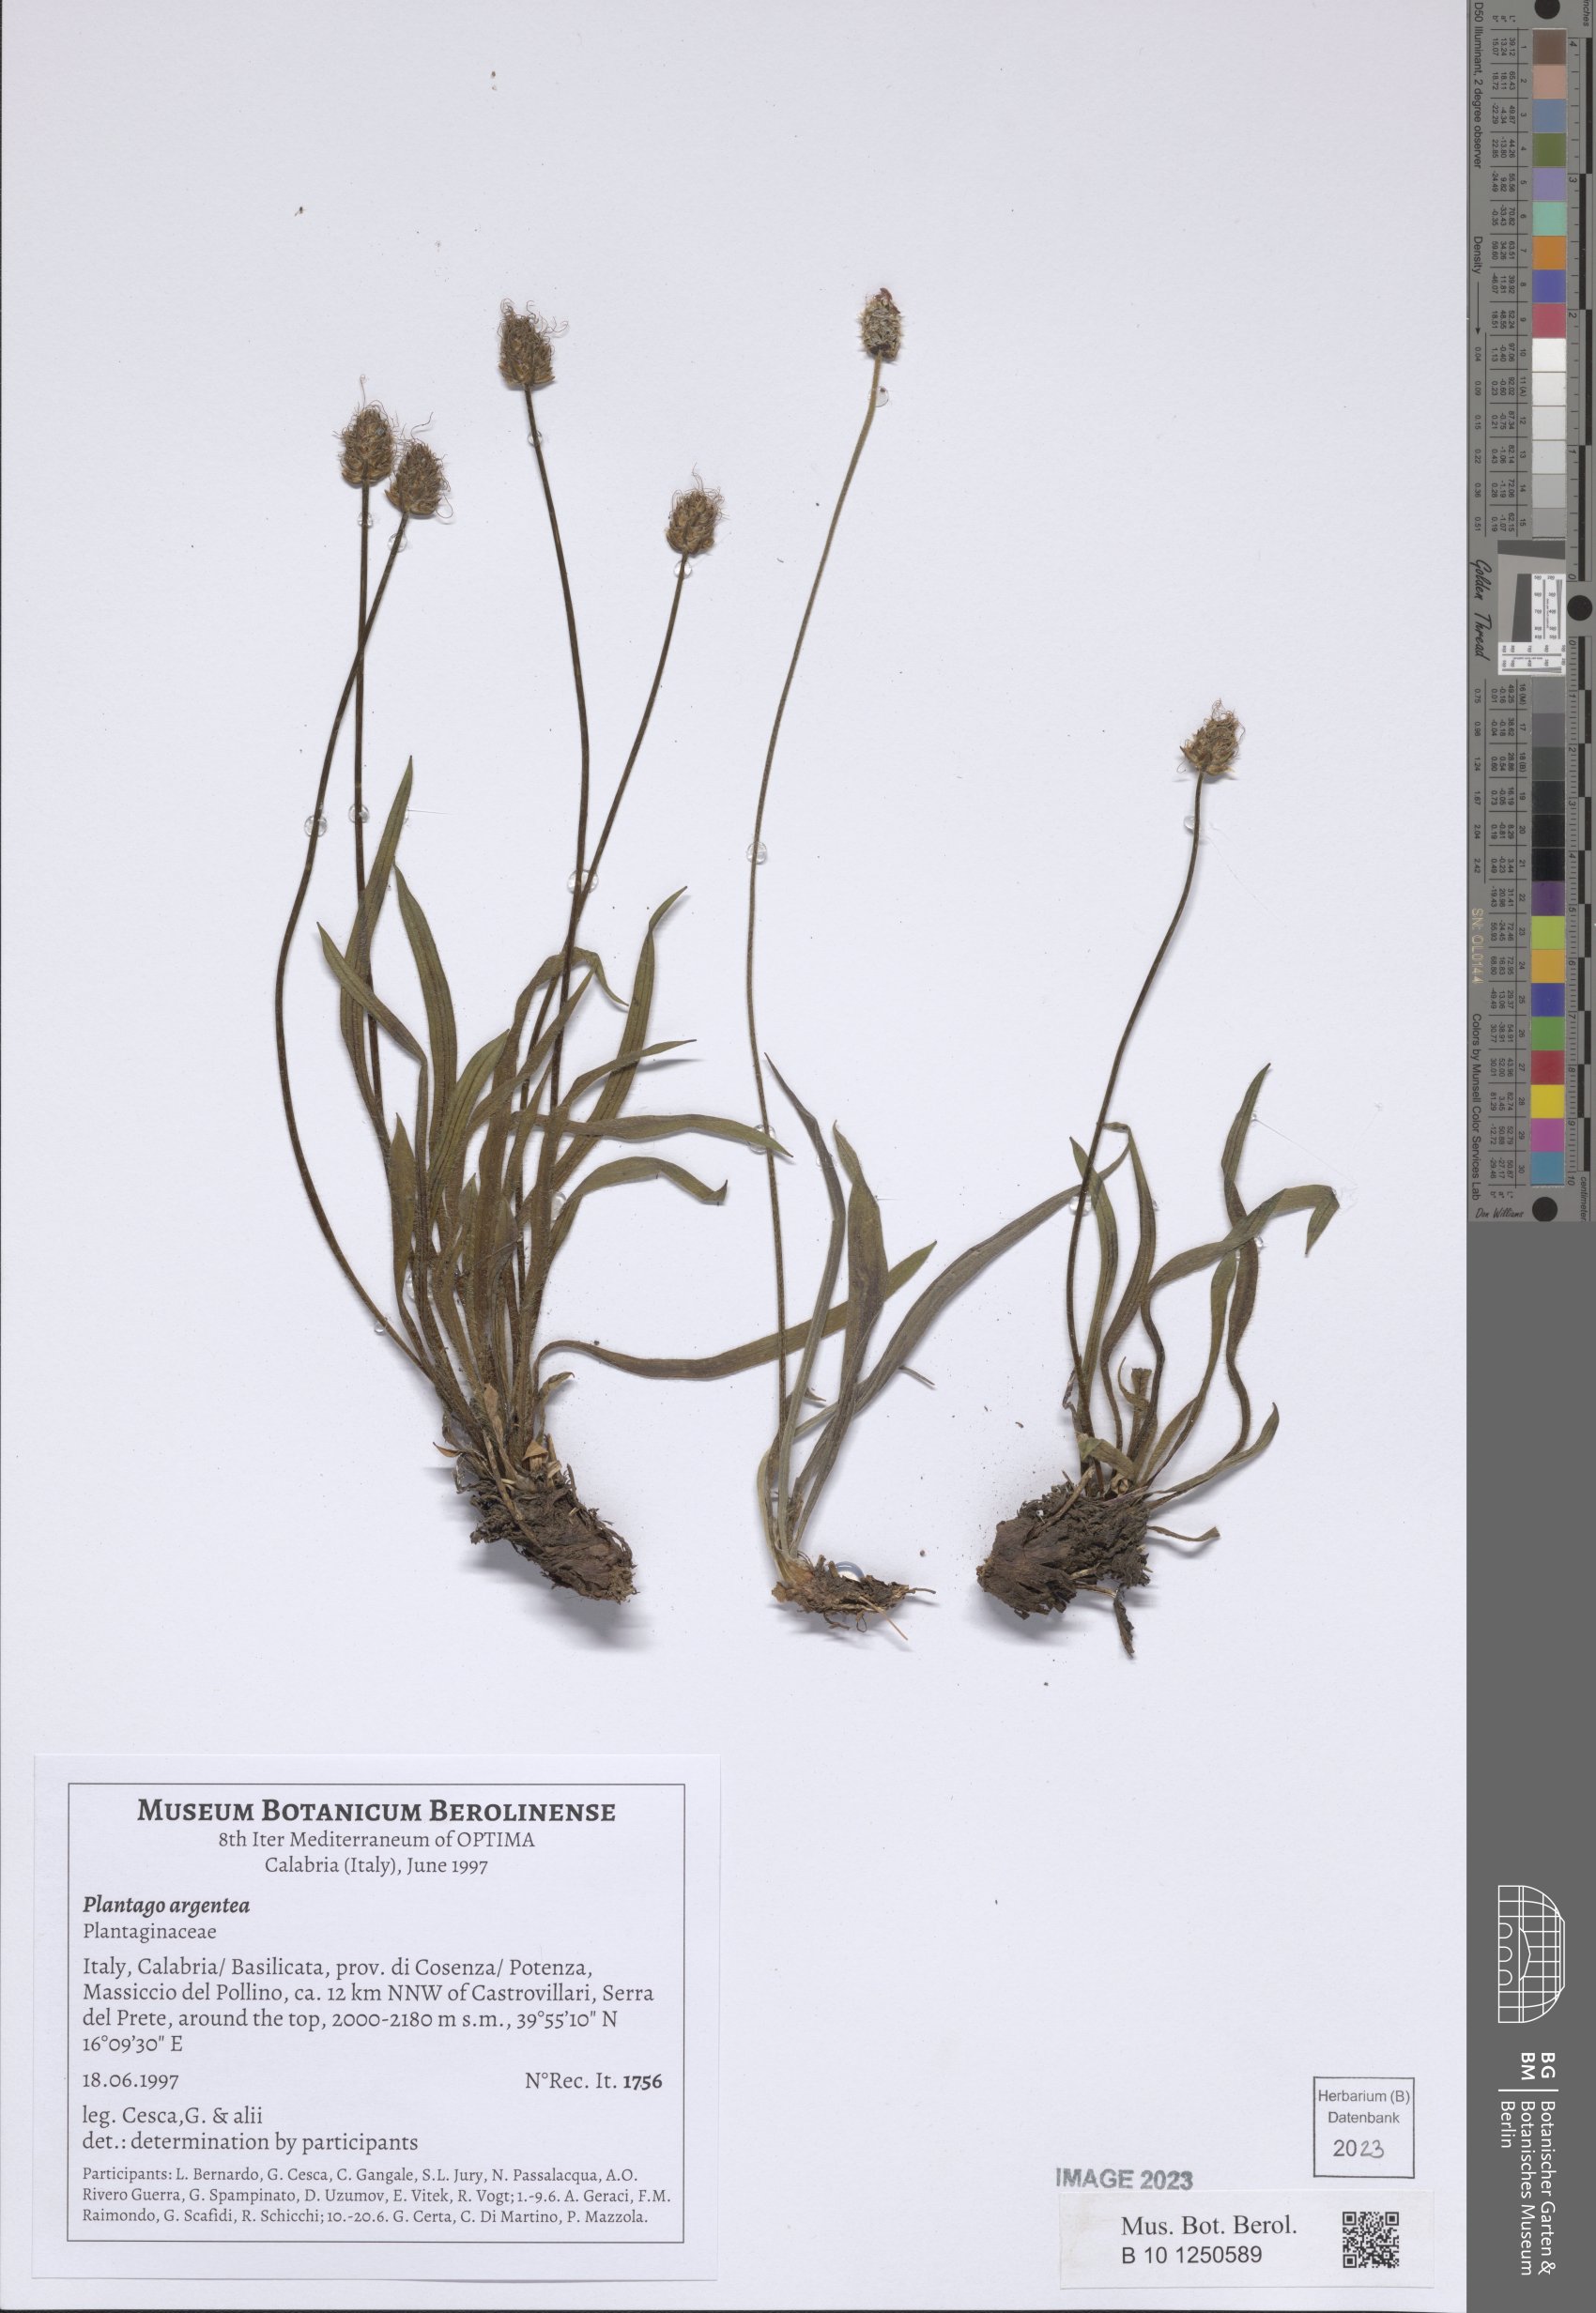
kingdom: Plantae
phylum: Tracheophyta
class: Magnoliopsida
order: Lamiales
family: Plantaginaceae
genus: Plantago
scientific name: Plantago argentea
